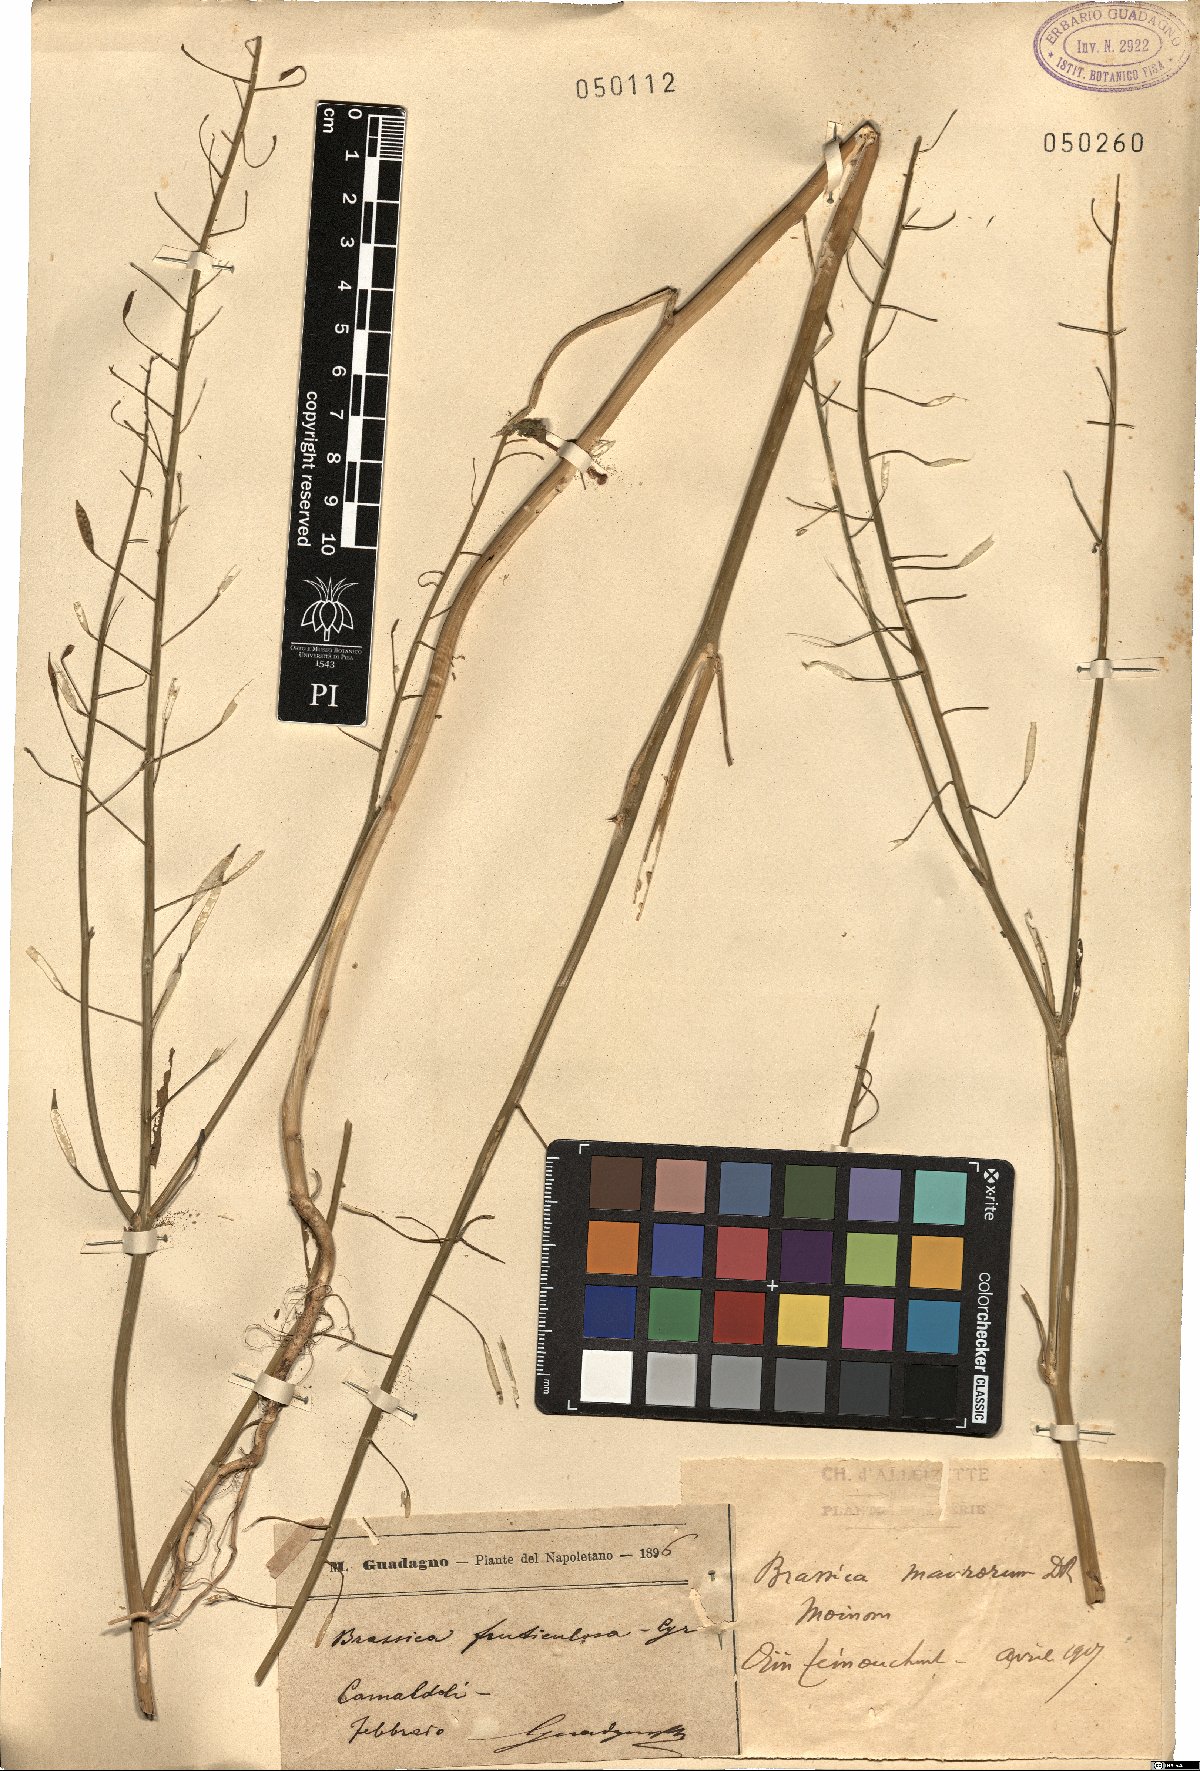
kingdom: Plantae
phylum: Tracheophyta
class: Magnoliopsida
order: Brassicales
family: Brassicaceae
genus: Brassica
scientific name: Brassica maurorum
